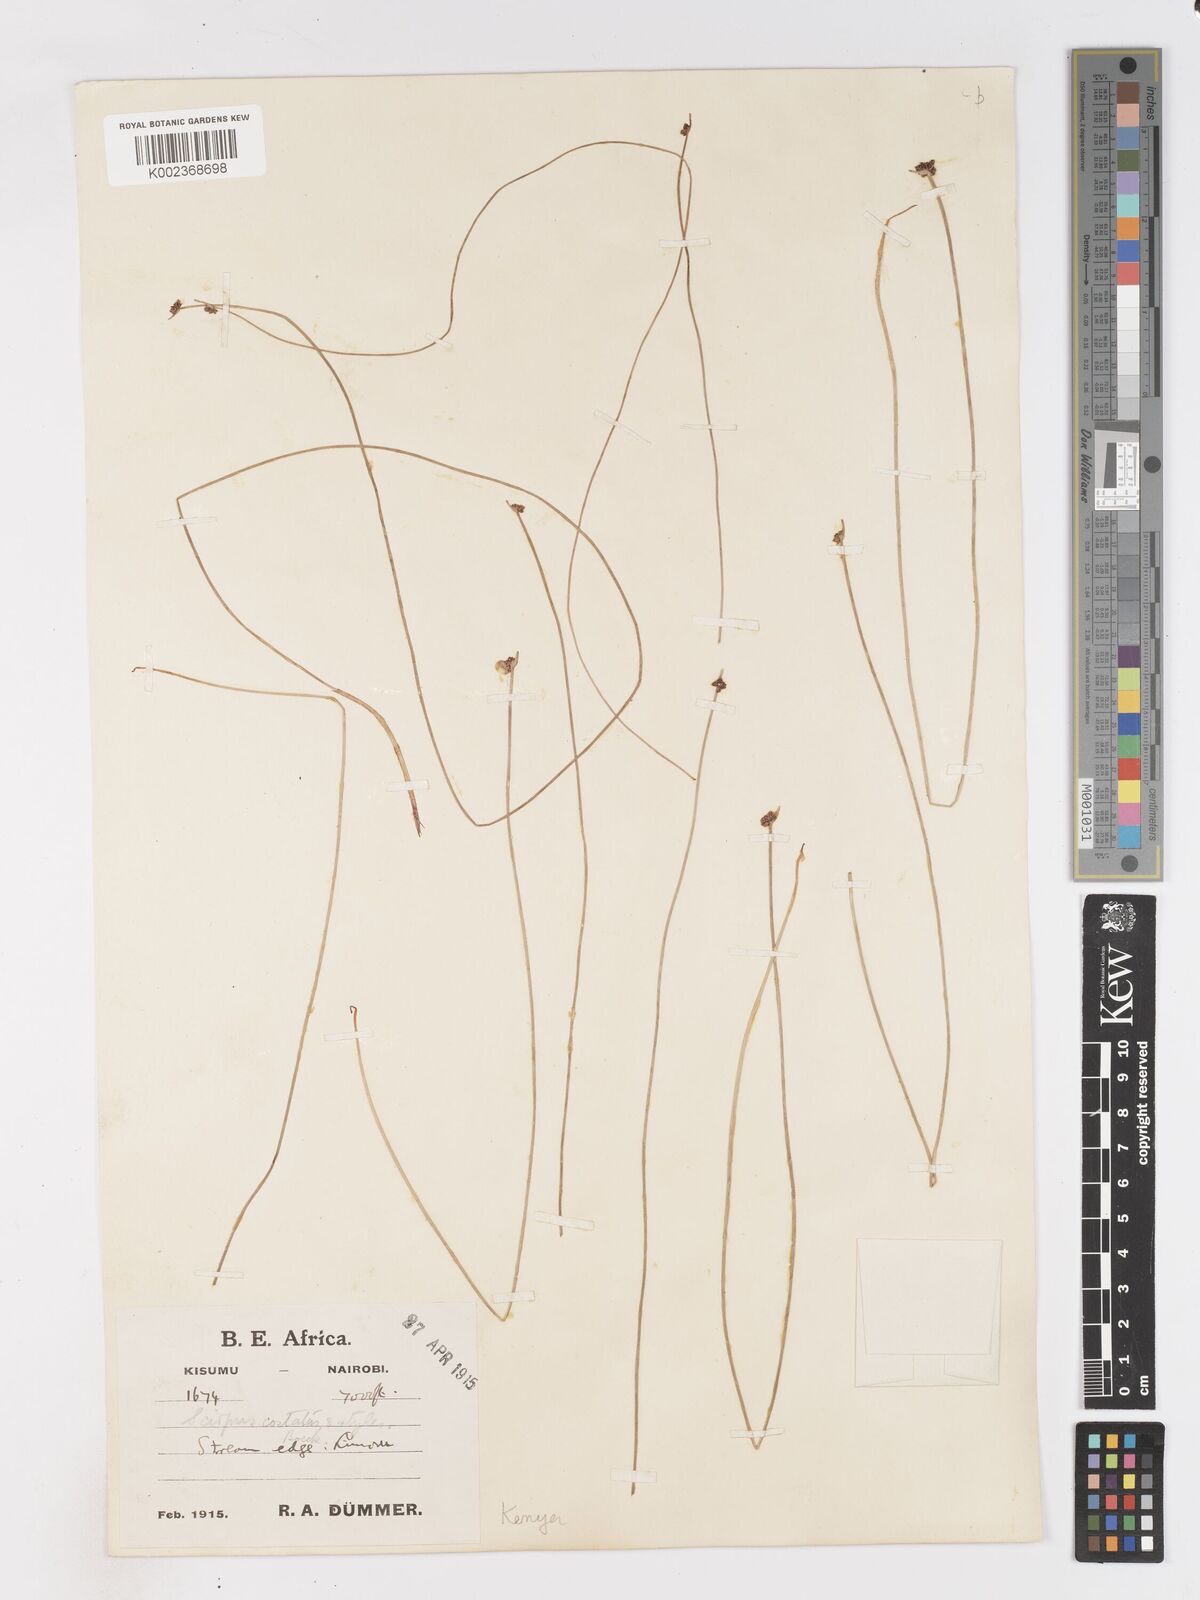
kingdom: Plantae
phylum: Tracheophyta
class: Liliopsida
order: Poales
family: Cyperaceae
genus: Isolepis
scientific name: Isolepis costata
